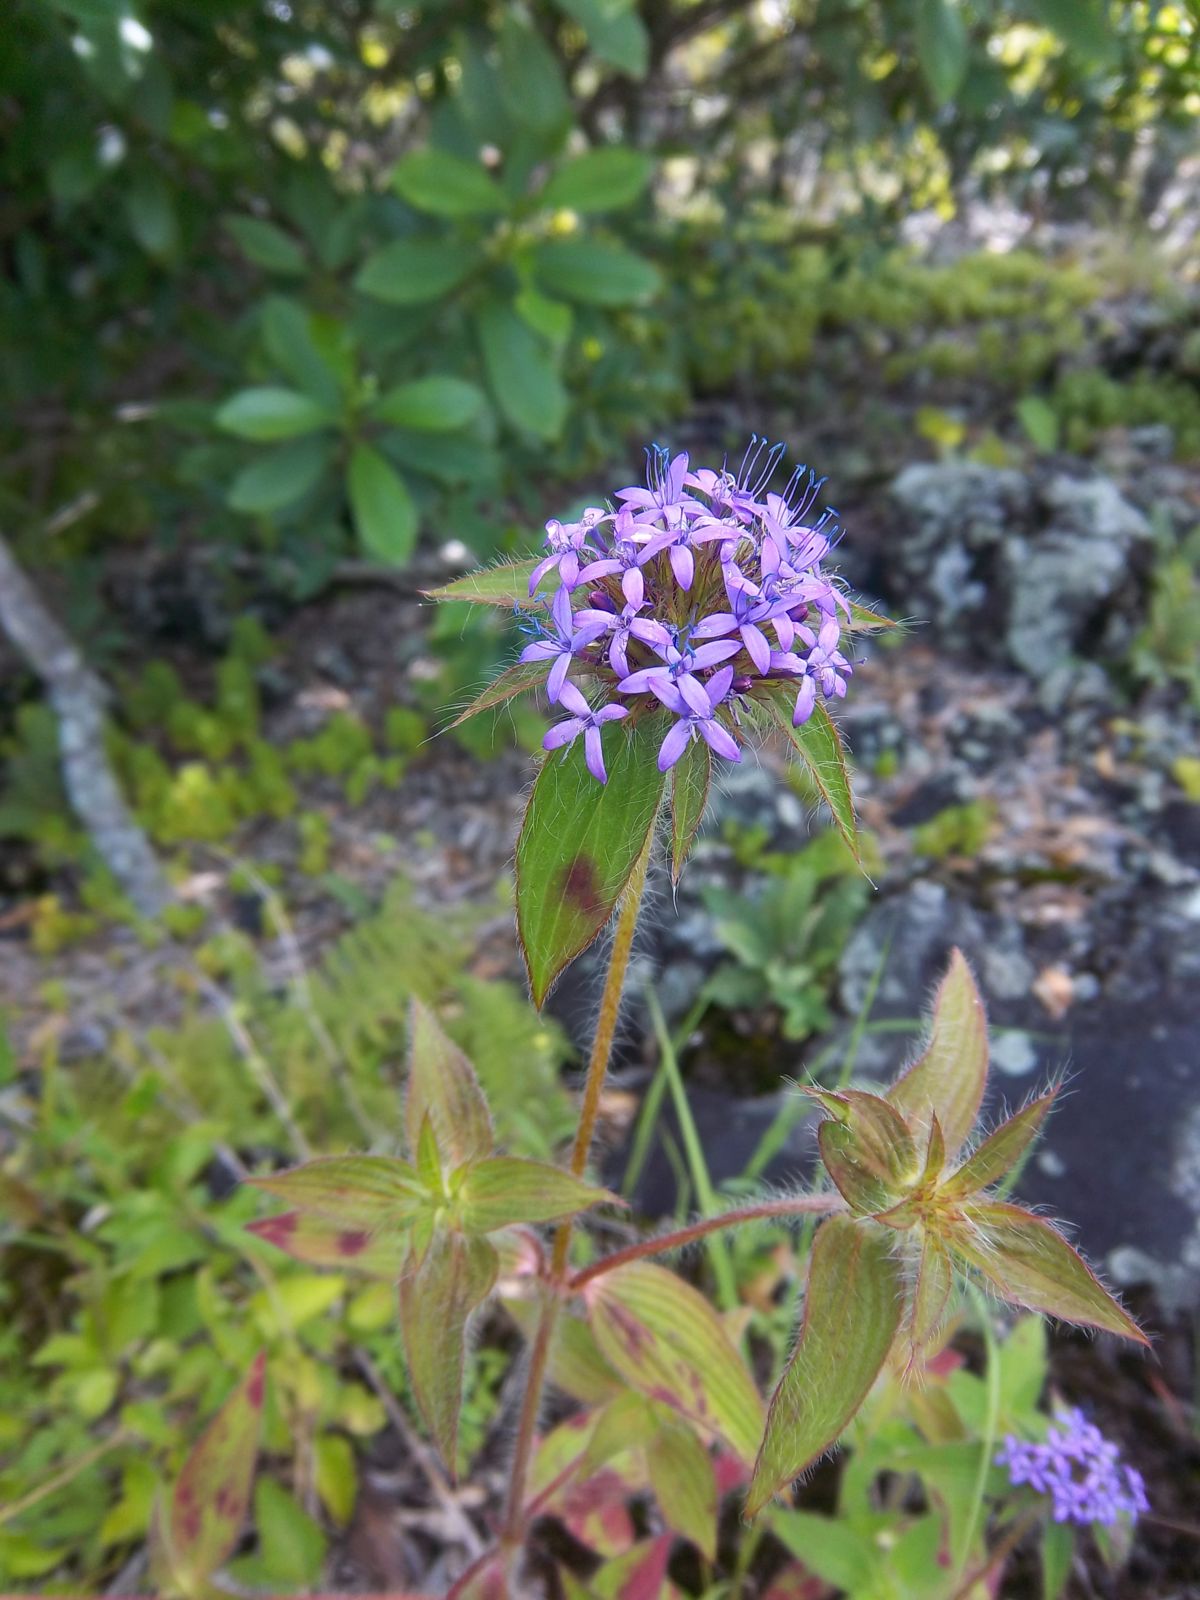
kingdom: Plantae
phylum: Tracheophyta
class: Magnoliopsida
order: Gentianales
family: Rubiaceae
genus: Crusea
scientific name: Crusea longiflora
